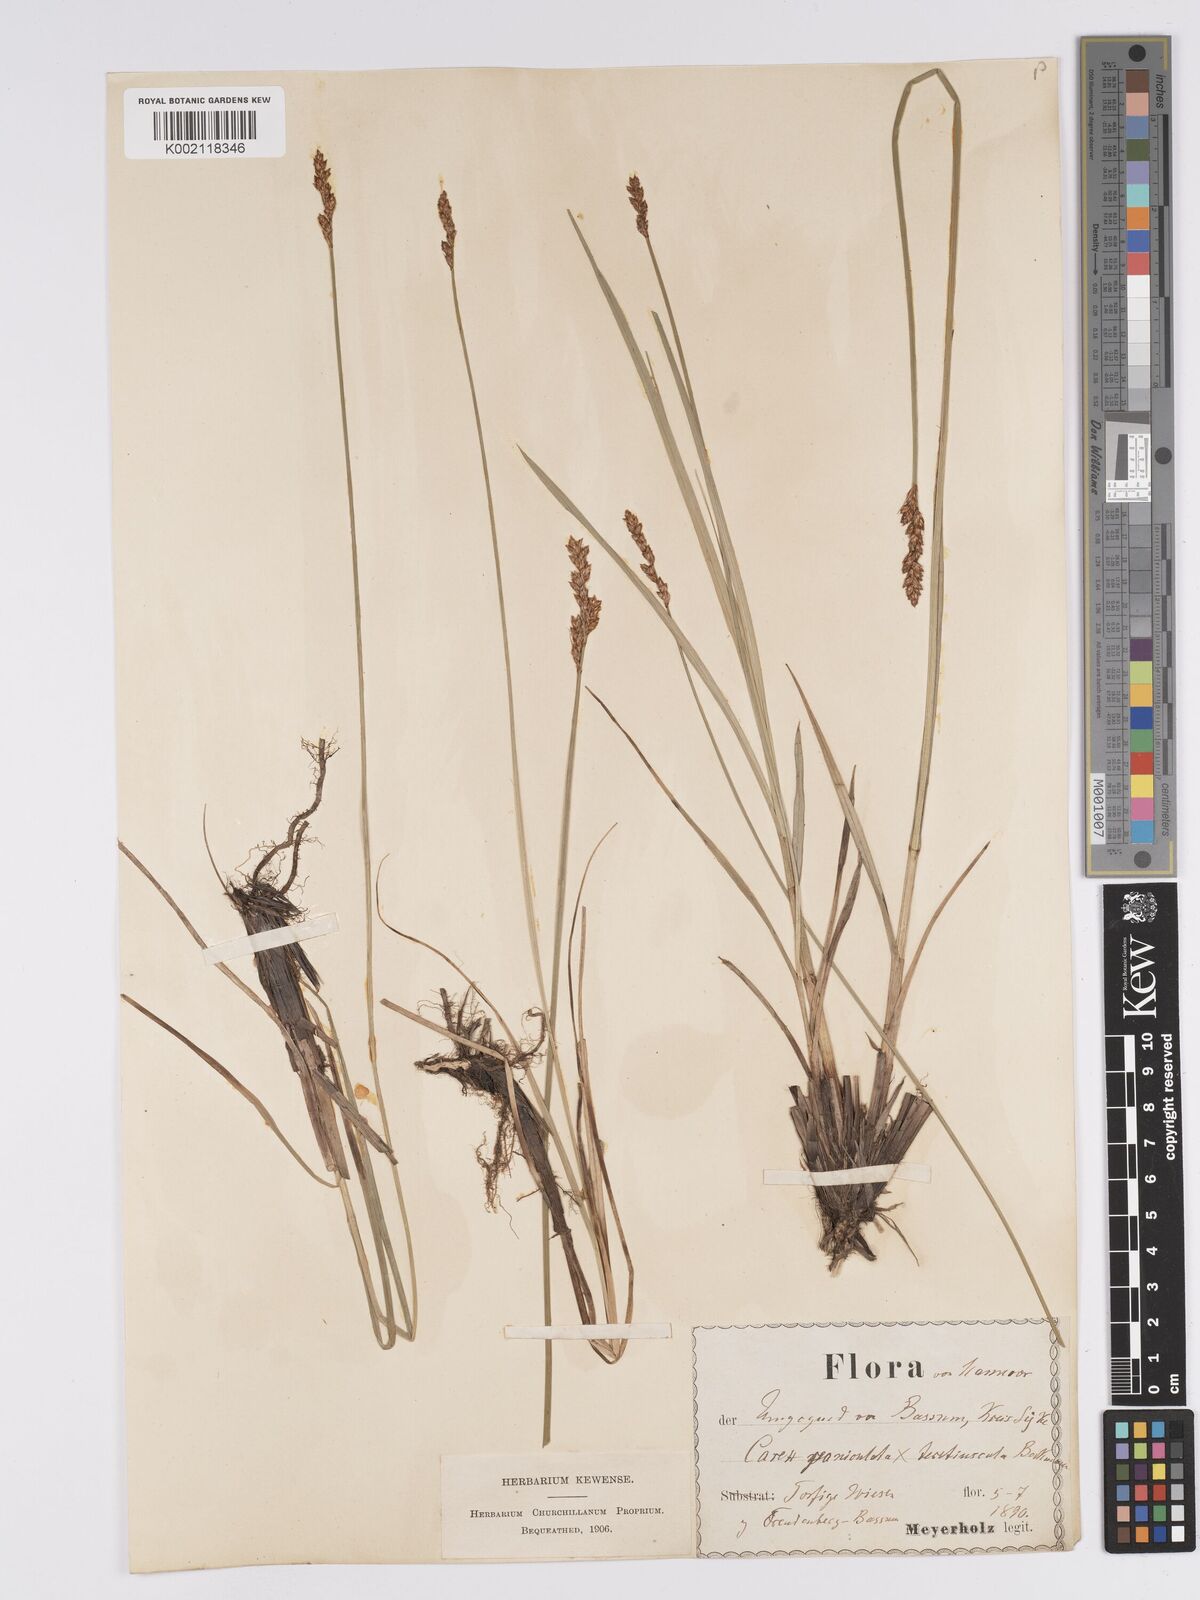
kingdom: Plantae
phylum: Tracheophyta
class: Liliopsida
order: Poales
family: Cyperaceae
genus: Carex
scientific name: Carex paniculata
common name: Greater tussock-sedge
